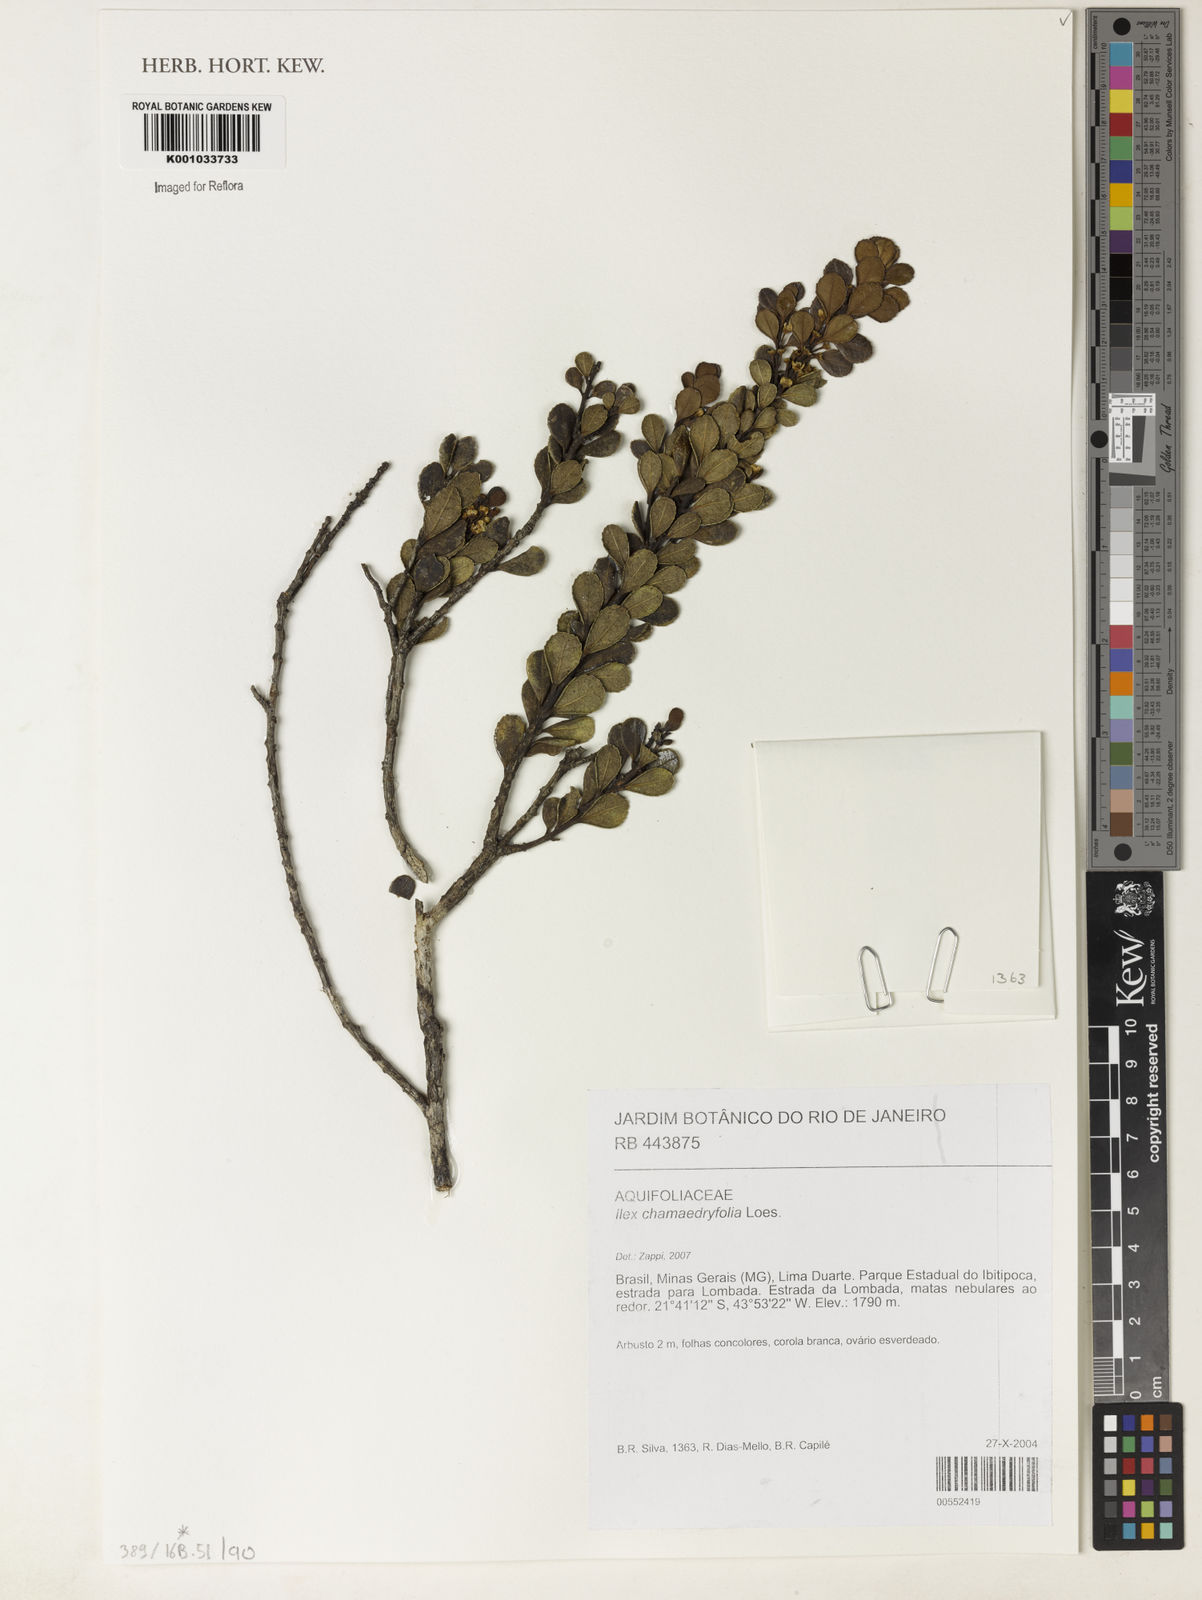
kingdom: Plantae
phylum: Tracheophyta
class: Magnoliopsida
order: Aquifoliales
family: Aquifoliaceae
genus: Ilex
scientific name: Ilex chamaedryfolia
